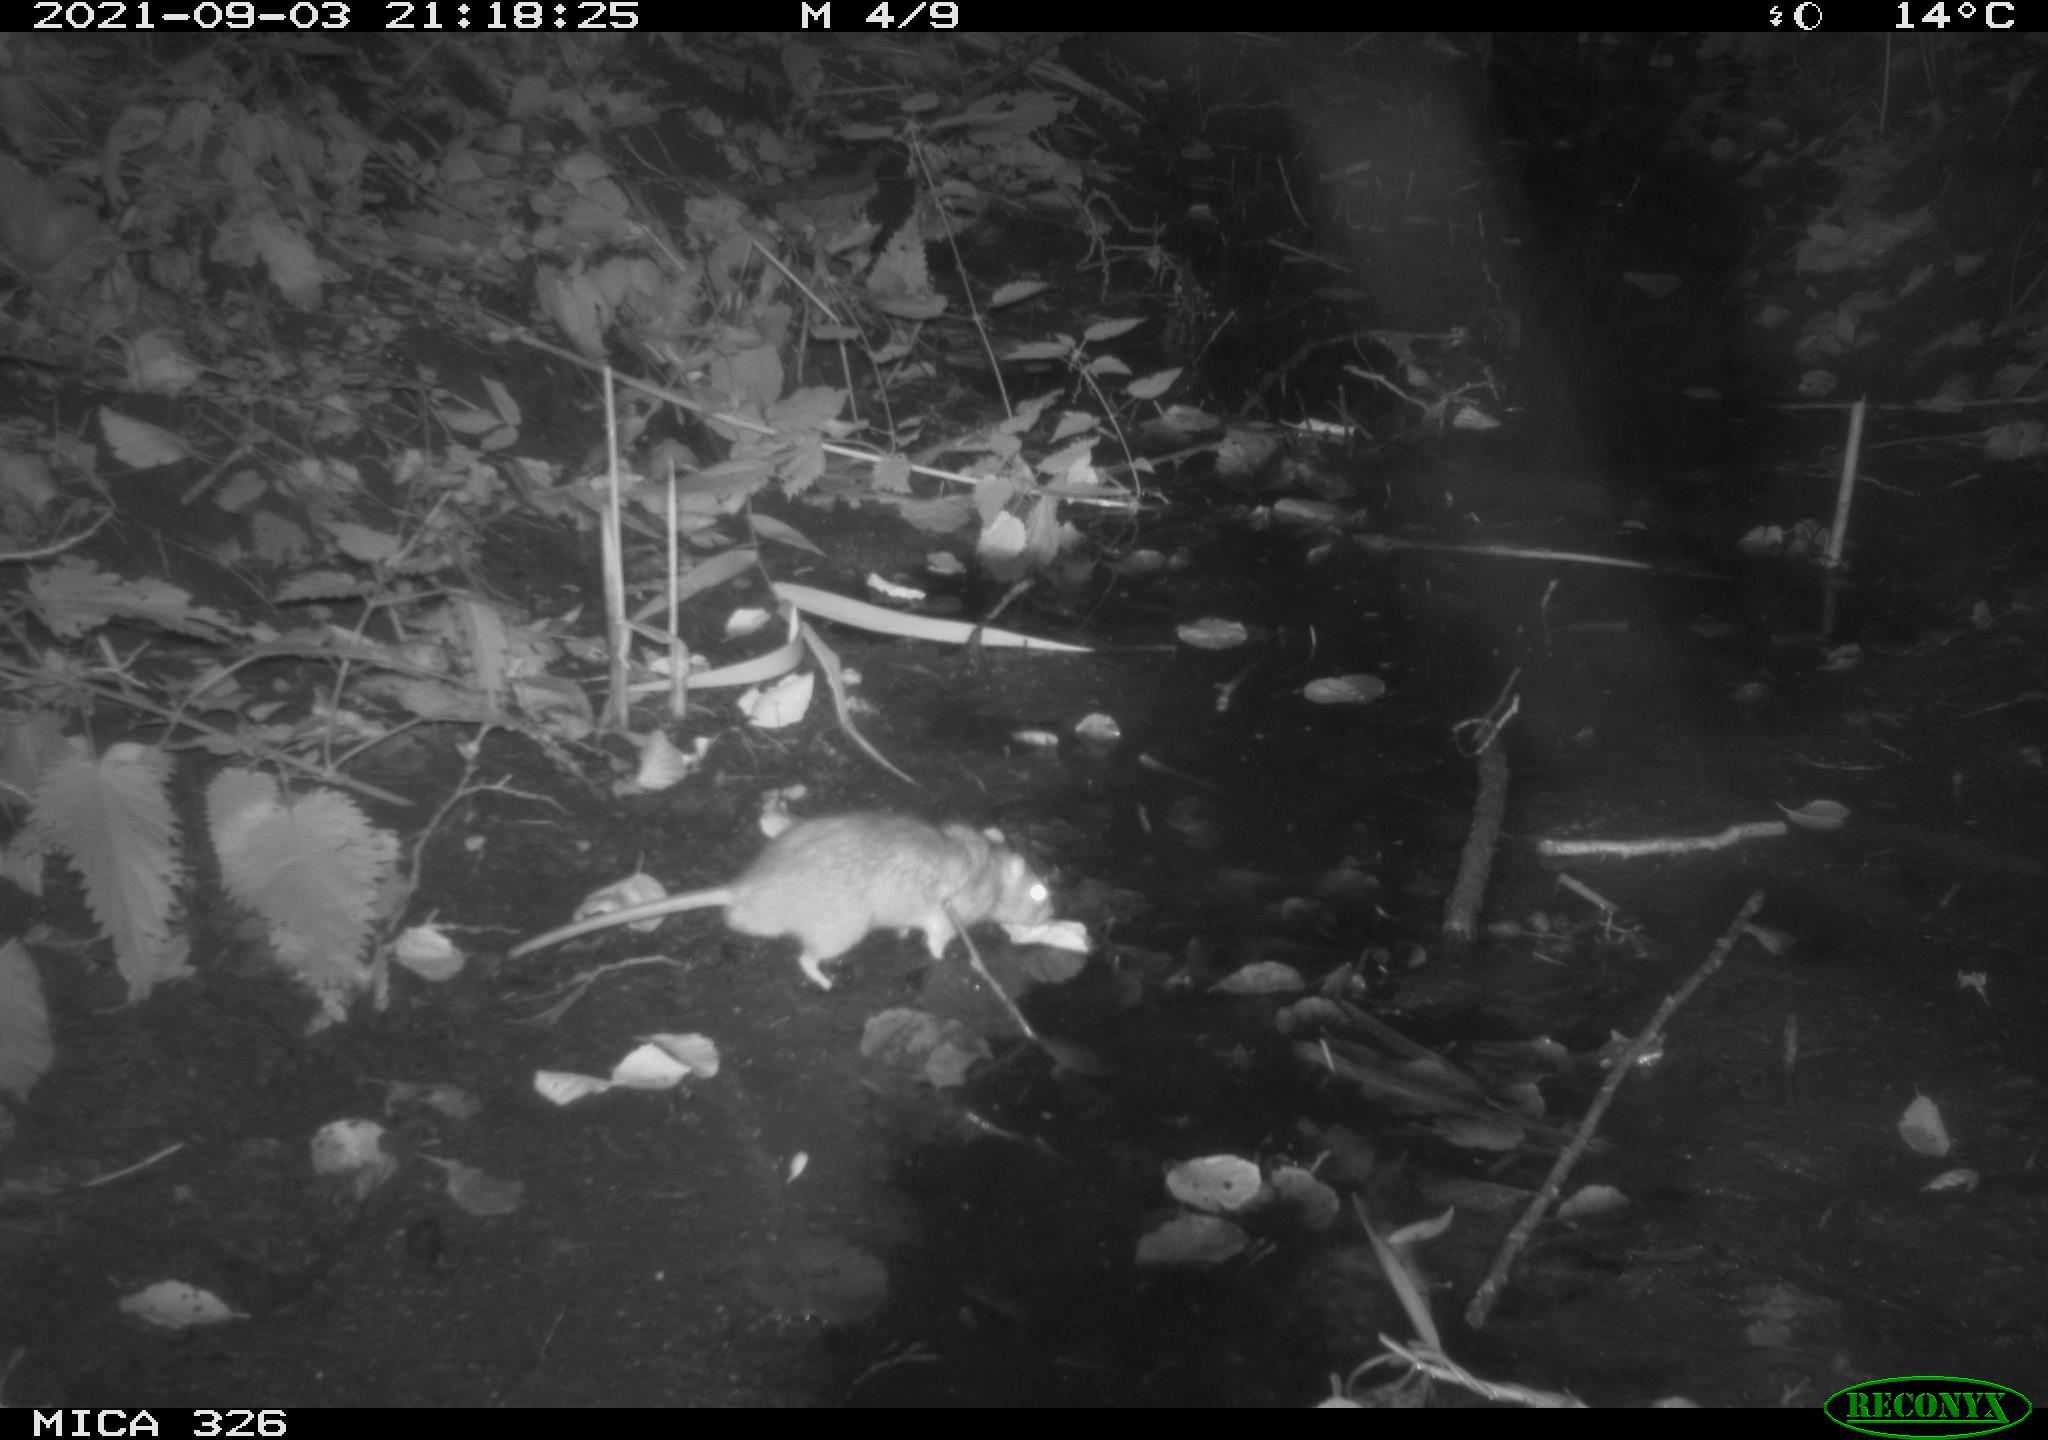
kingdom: Animalia
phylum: Chordata
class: Mammalia
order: Rodentia
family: Muridae
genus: Rattus
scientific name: Rattus norvegicus
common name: Brown rat
